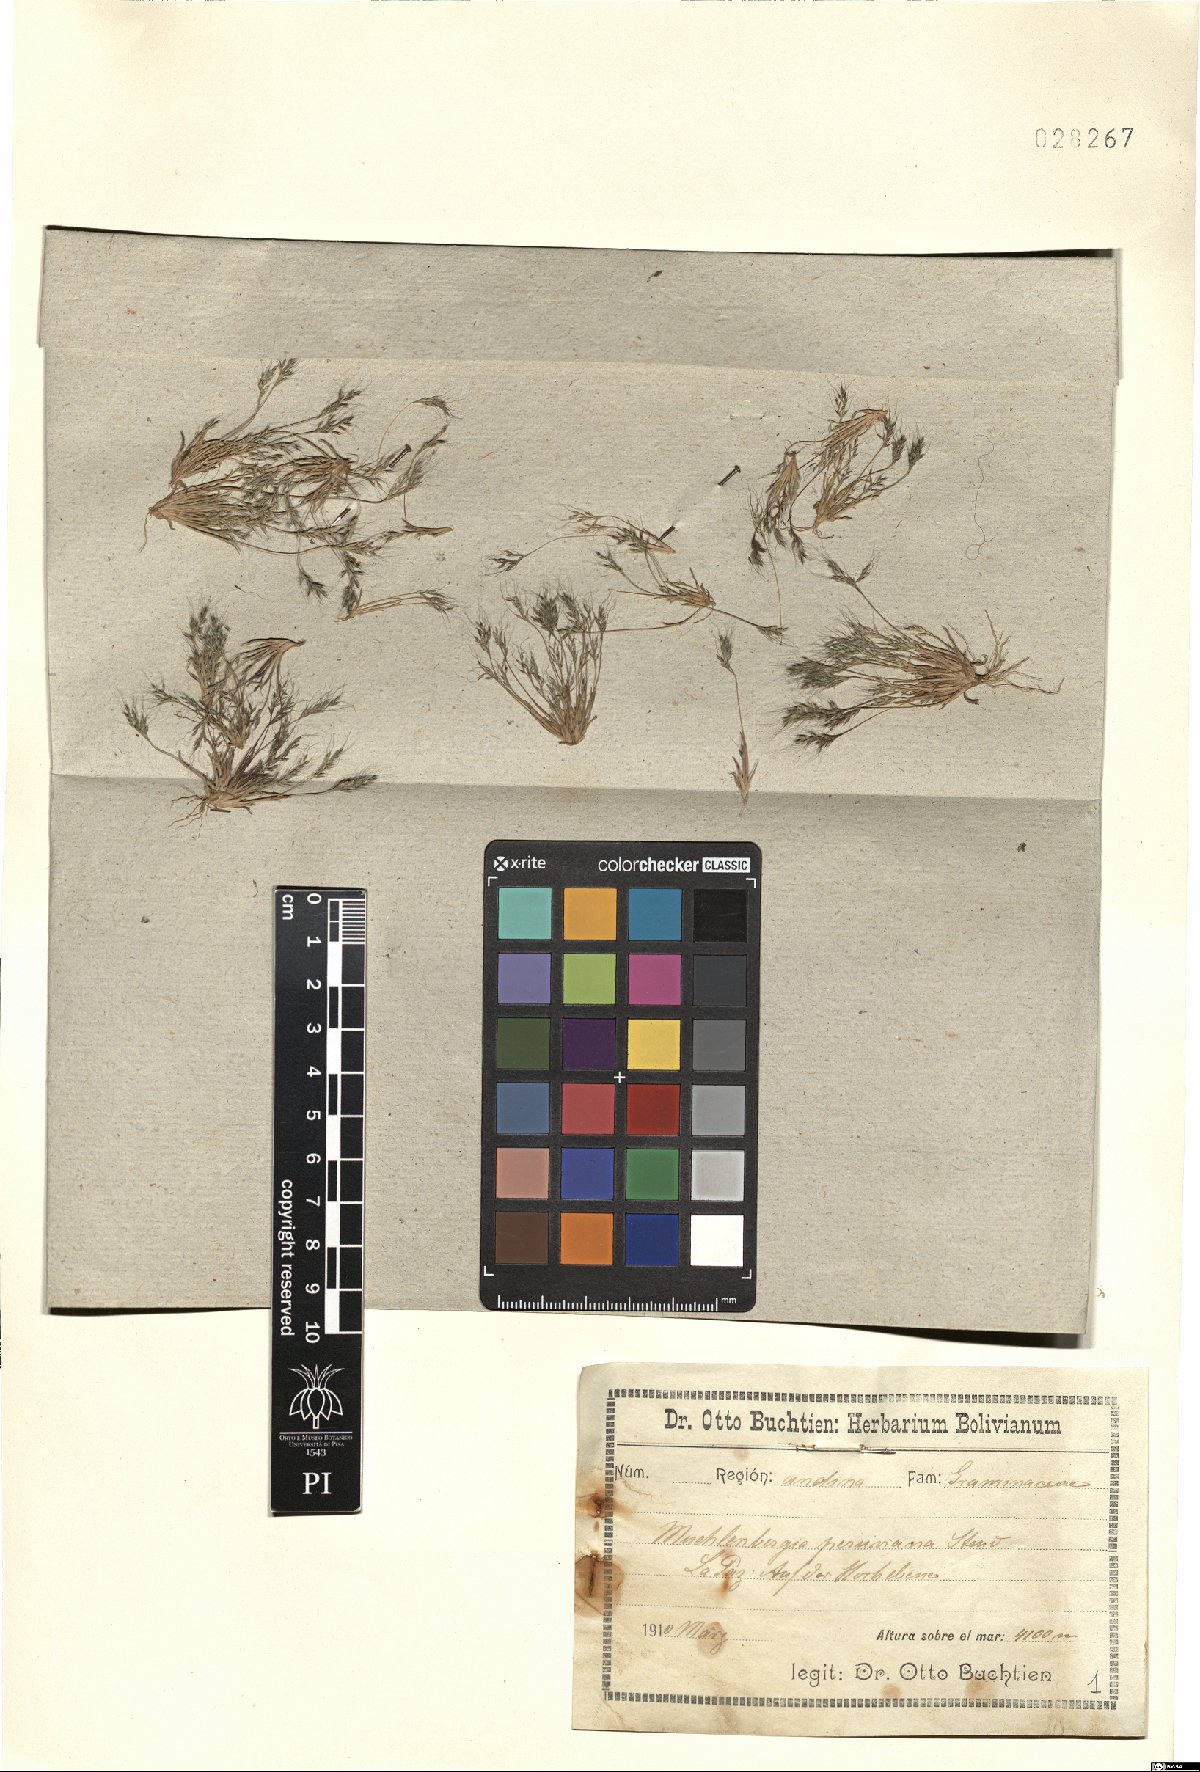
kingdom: Plantae
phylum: Tracheophyta
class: Liliopsida
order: Poales
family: Poaceae
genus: Muhlenbergia
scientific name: Muhlenbergia peruviana
